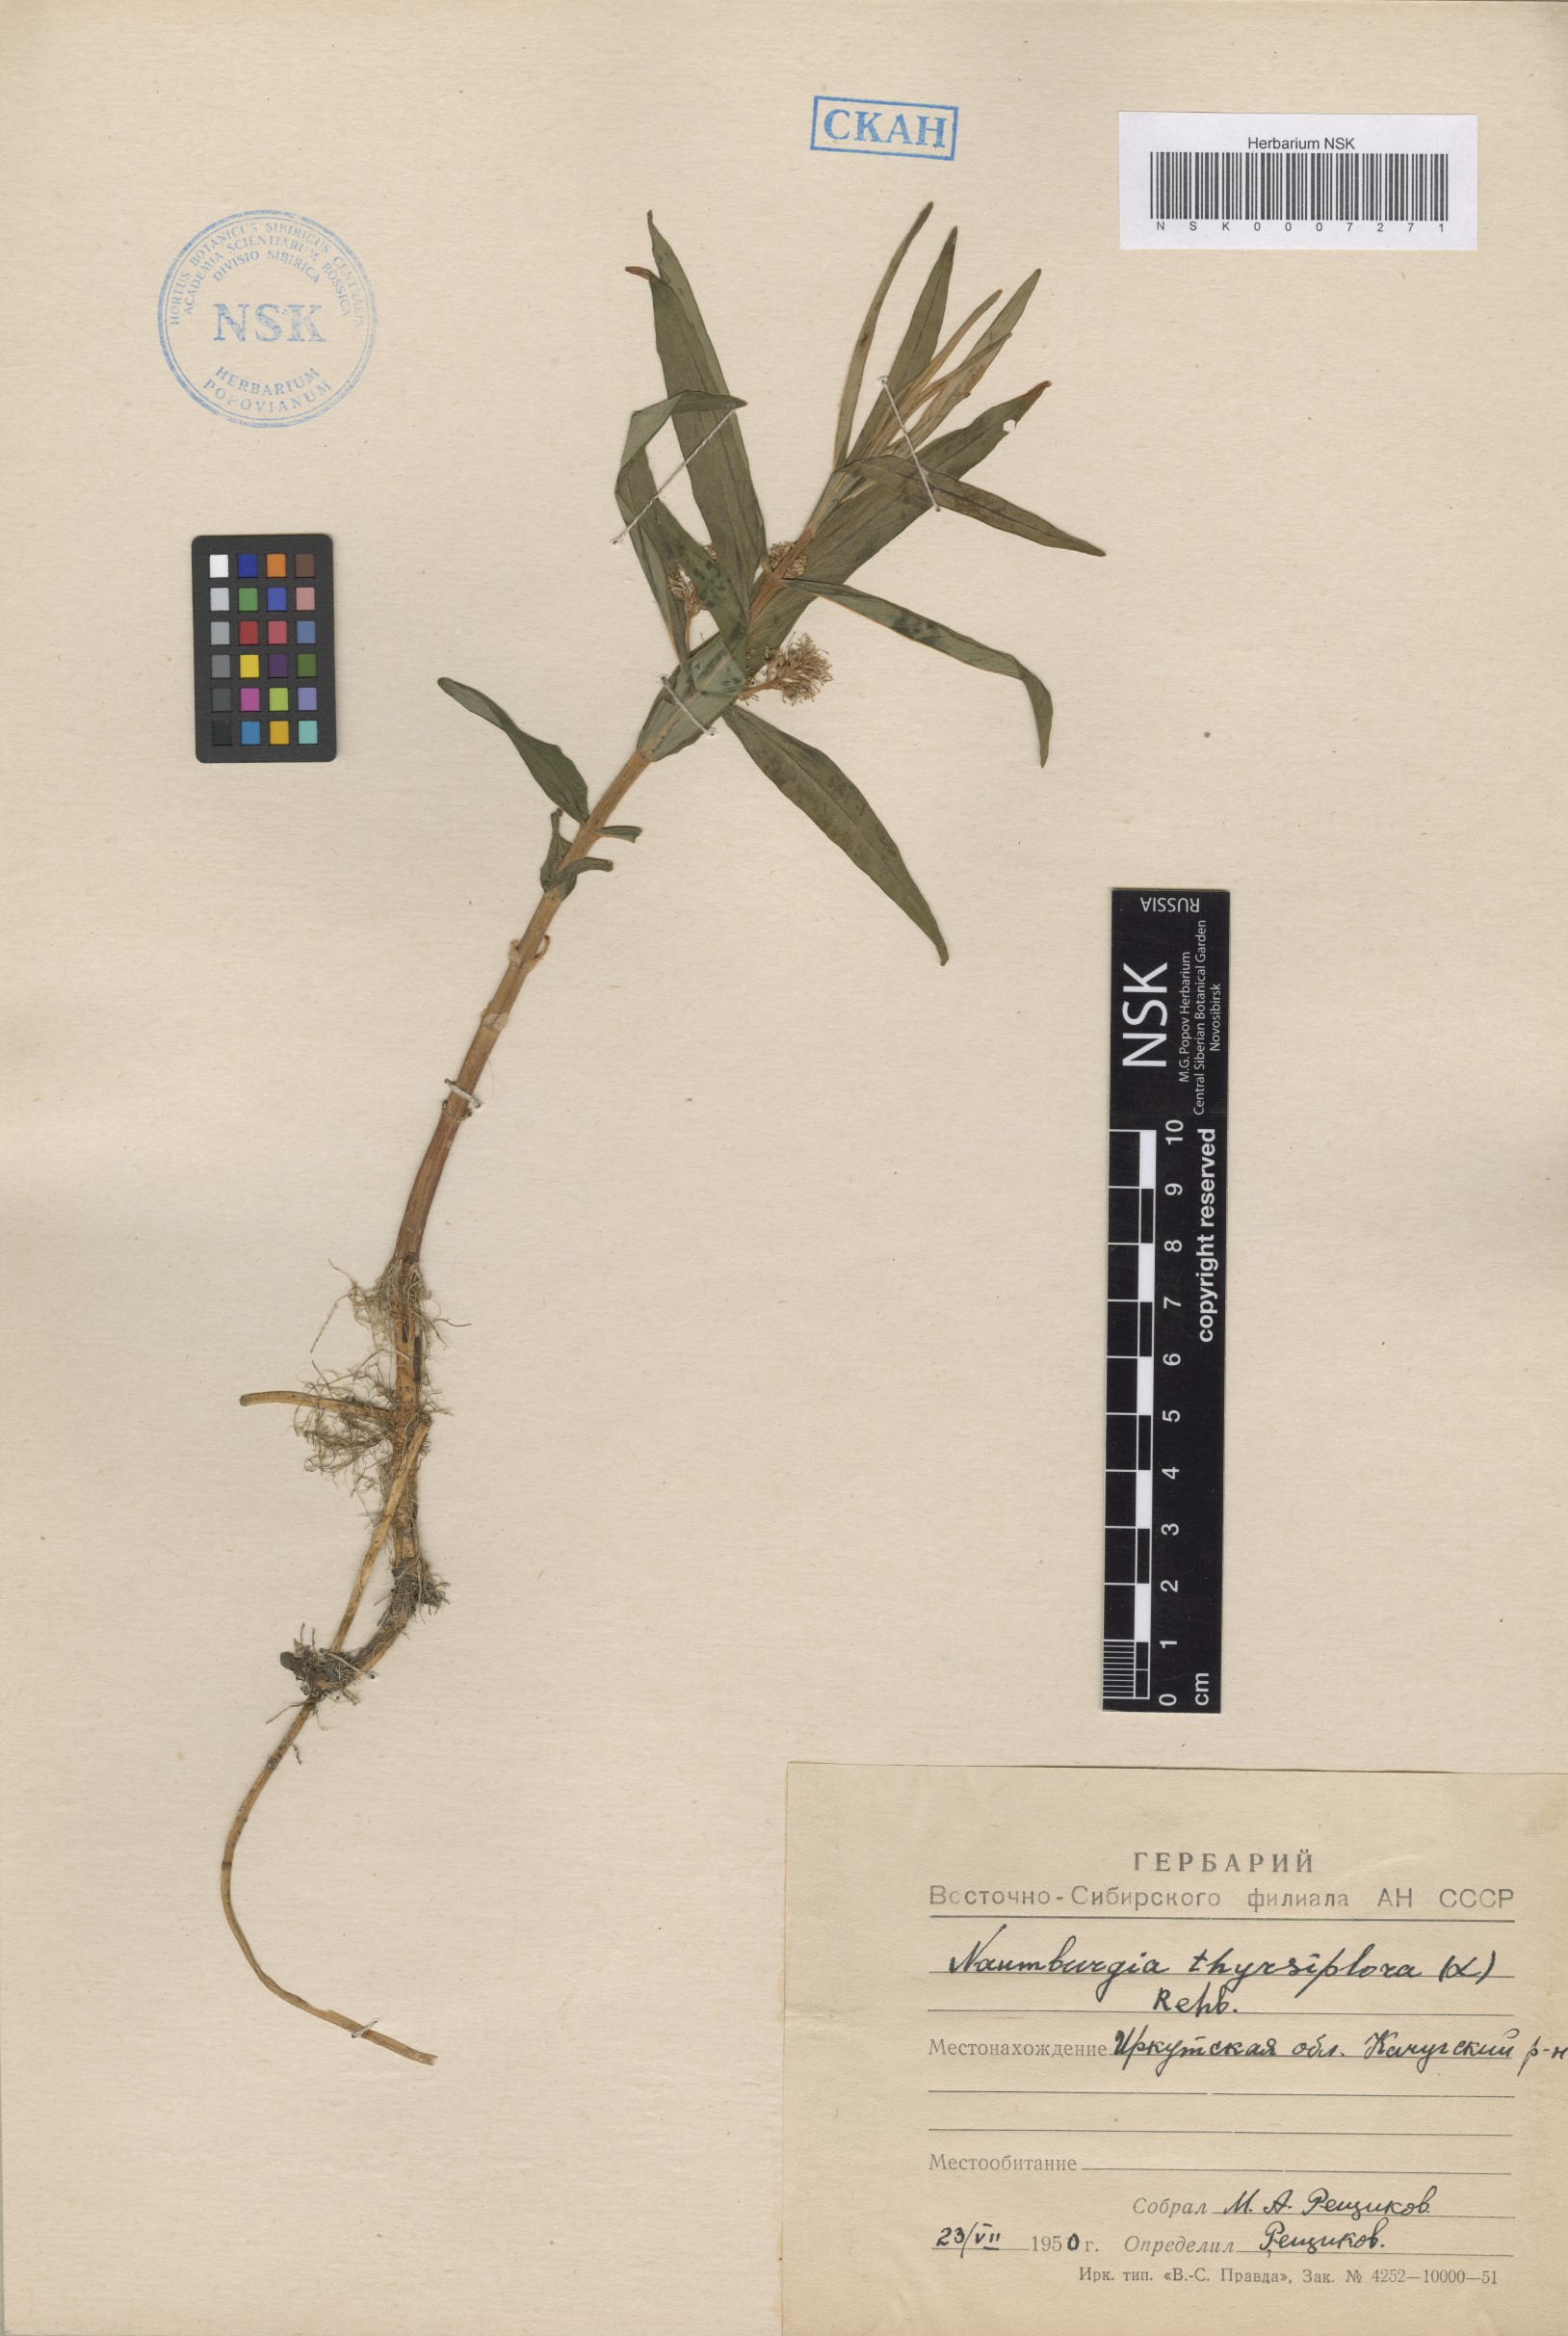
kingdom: Plantae
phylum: Tracheophyta
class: Magnoliopsida
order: Ericales
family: Primulaceae
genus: Lysimachia
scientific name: Lysimachia thyrsiflora
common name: Tufted loosestrife
